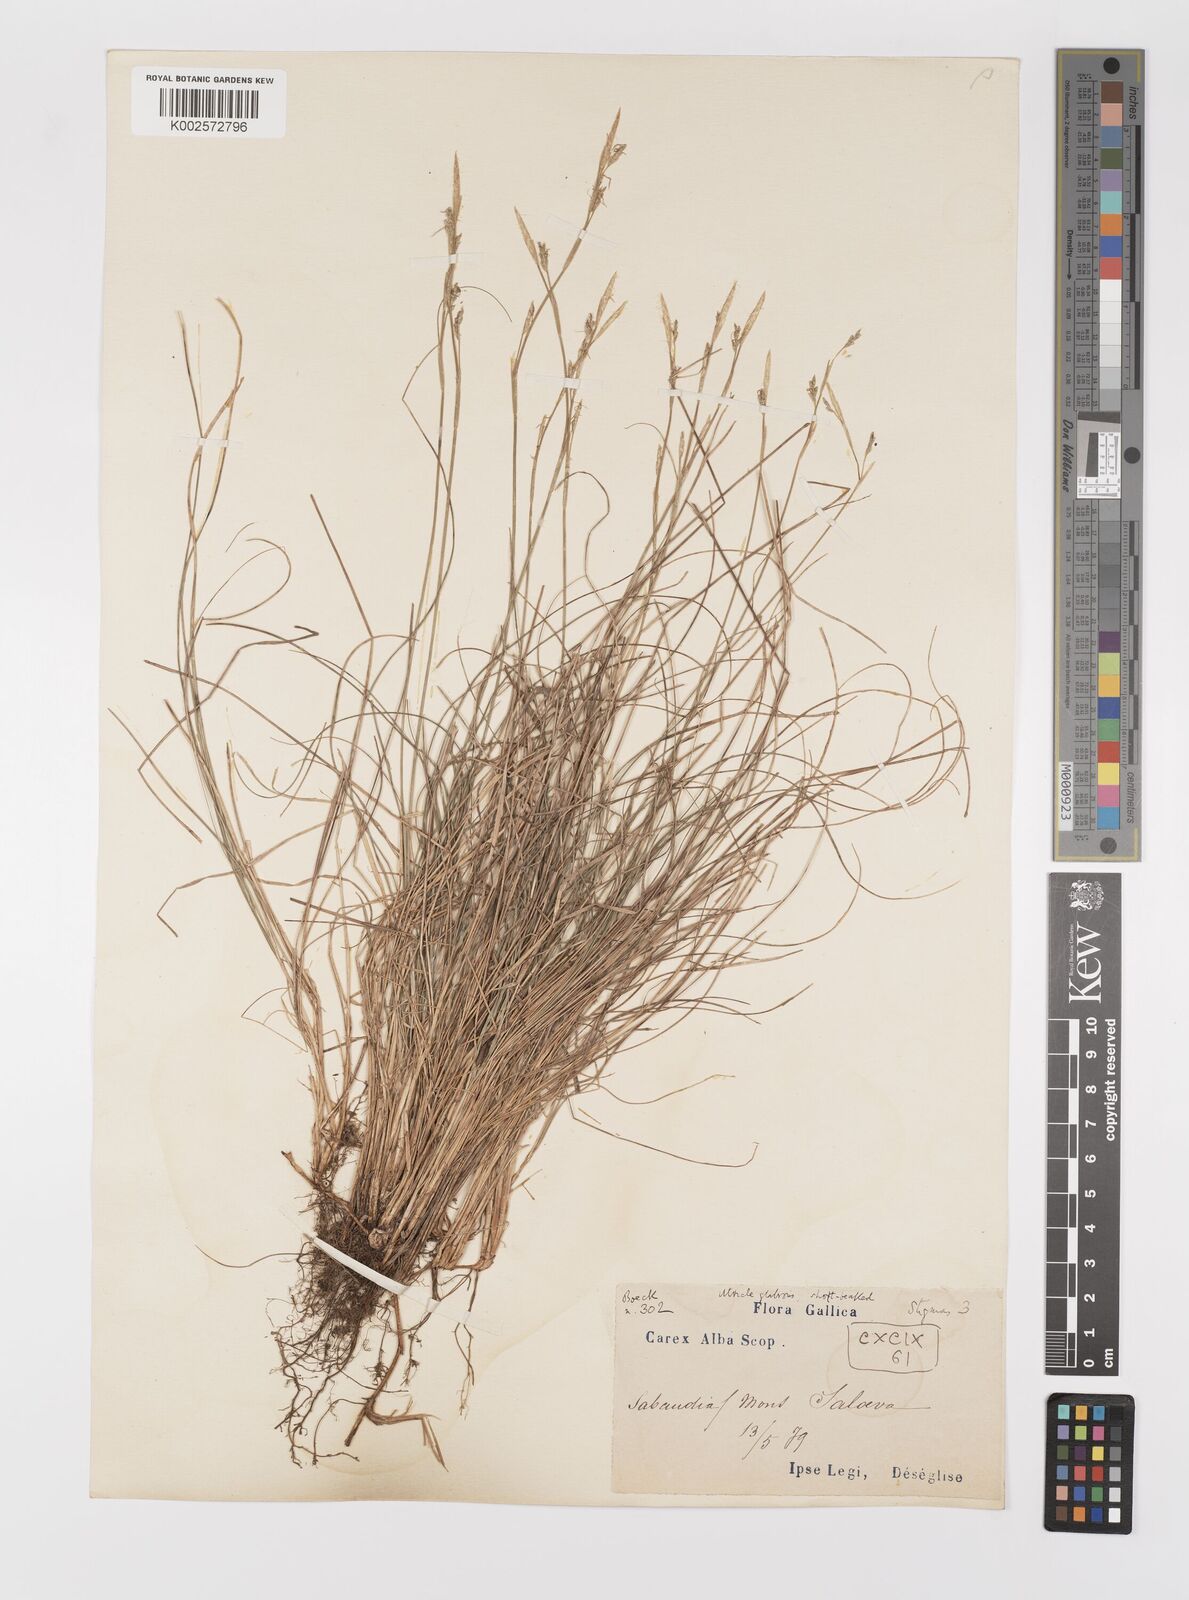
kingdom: Plantae
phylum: Tracheophyta
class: Liliopsida
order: Poales
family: Cyperaceae
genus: Carex
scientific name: Carex alba
